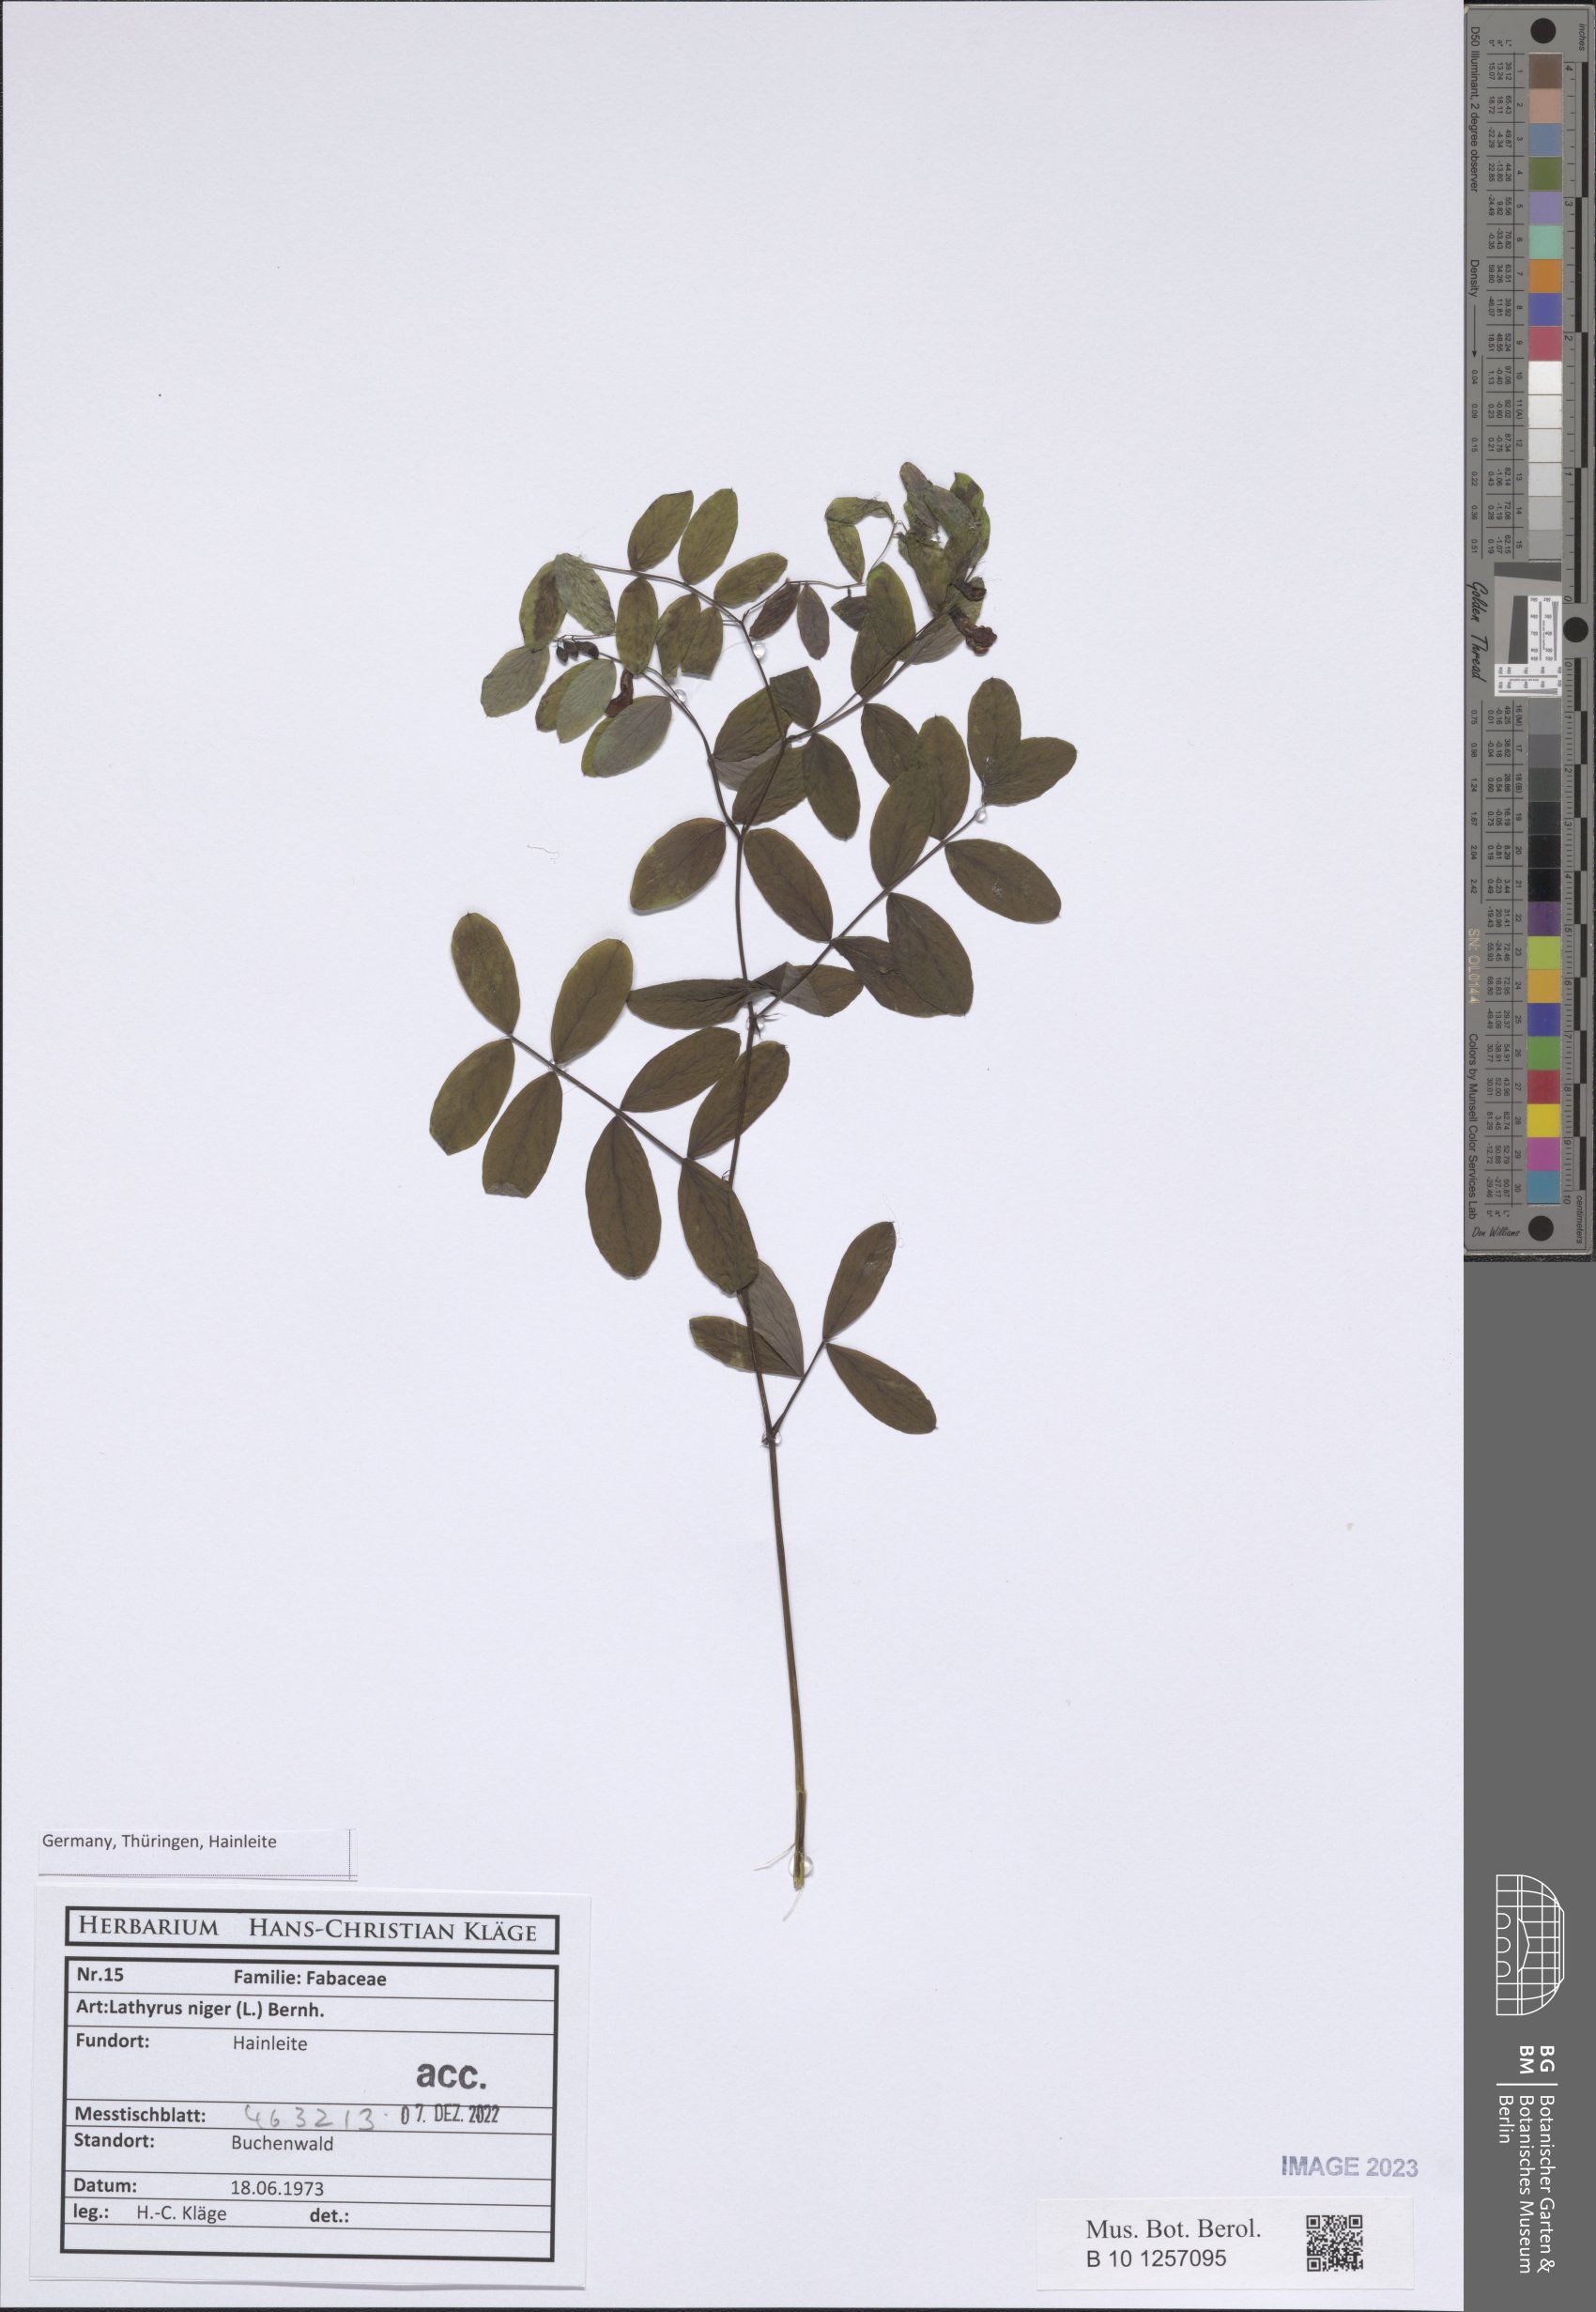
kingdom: Plantae
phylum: Tracheophyta
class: Magnoliopsida
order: Fabales
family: Fabaceae
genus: Lathyrus
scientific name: Lathyrus niger
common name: Black pea
